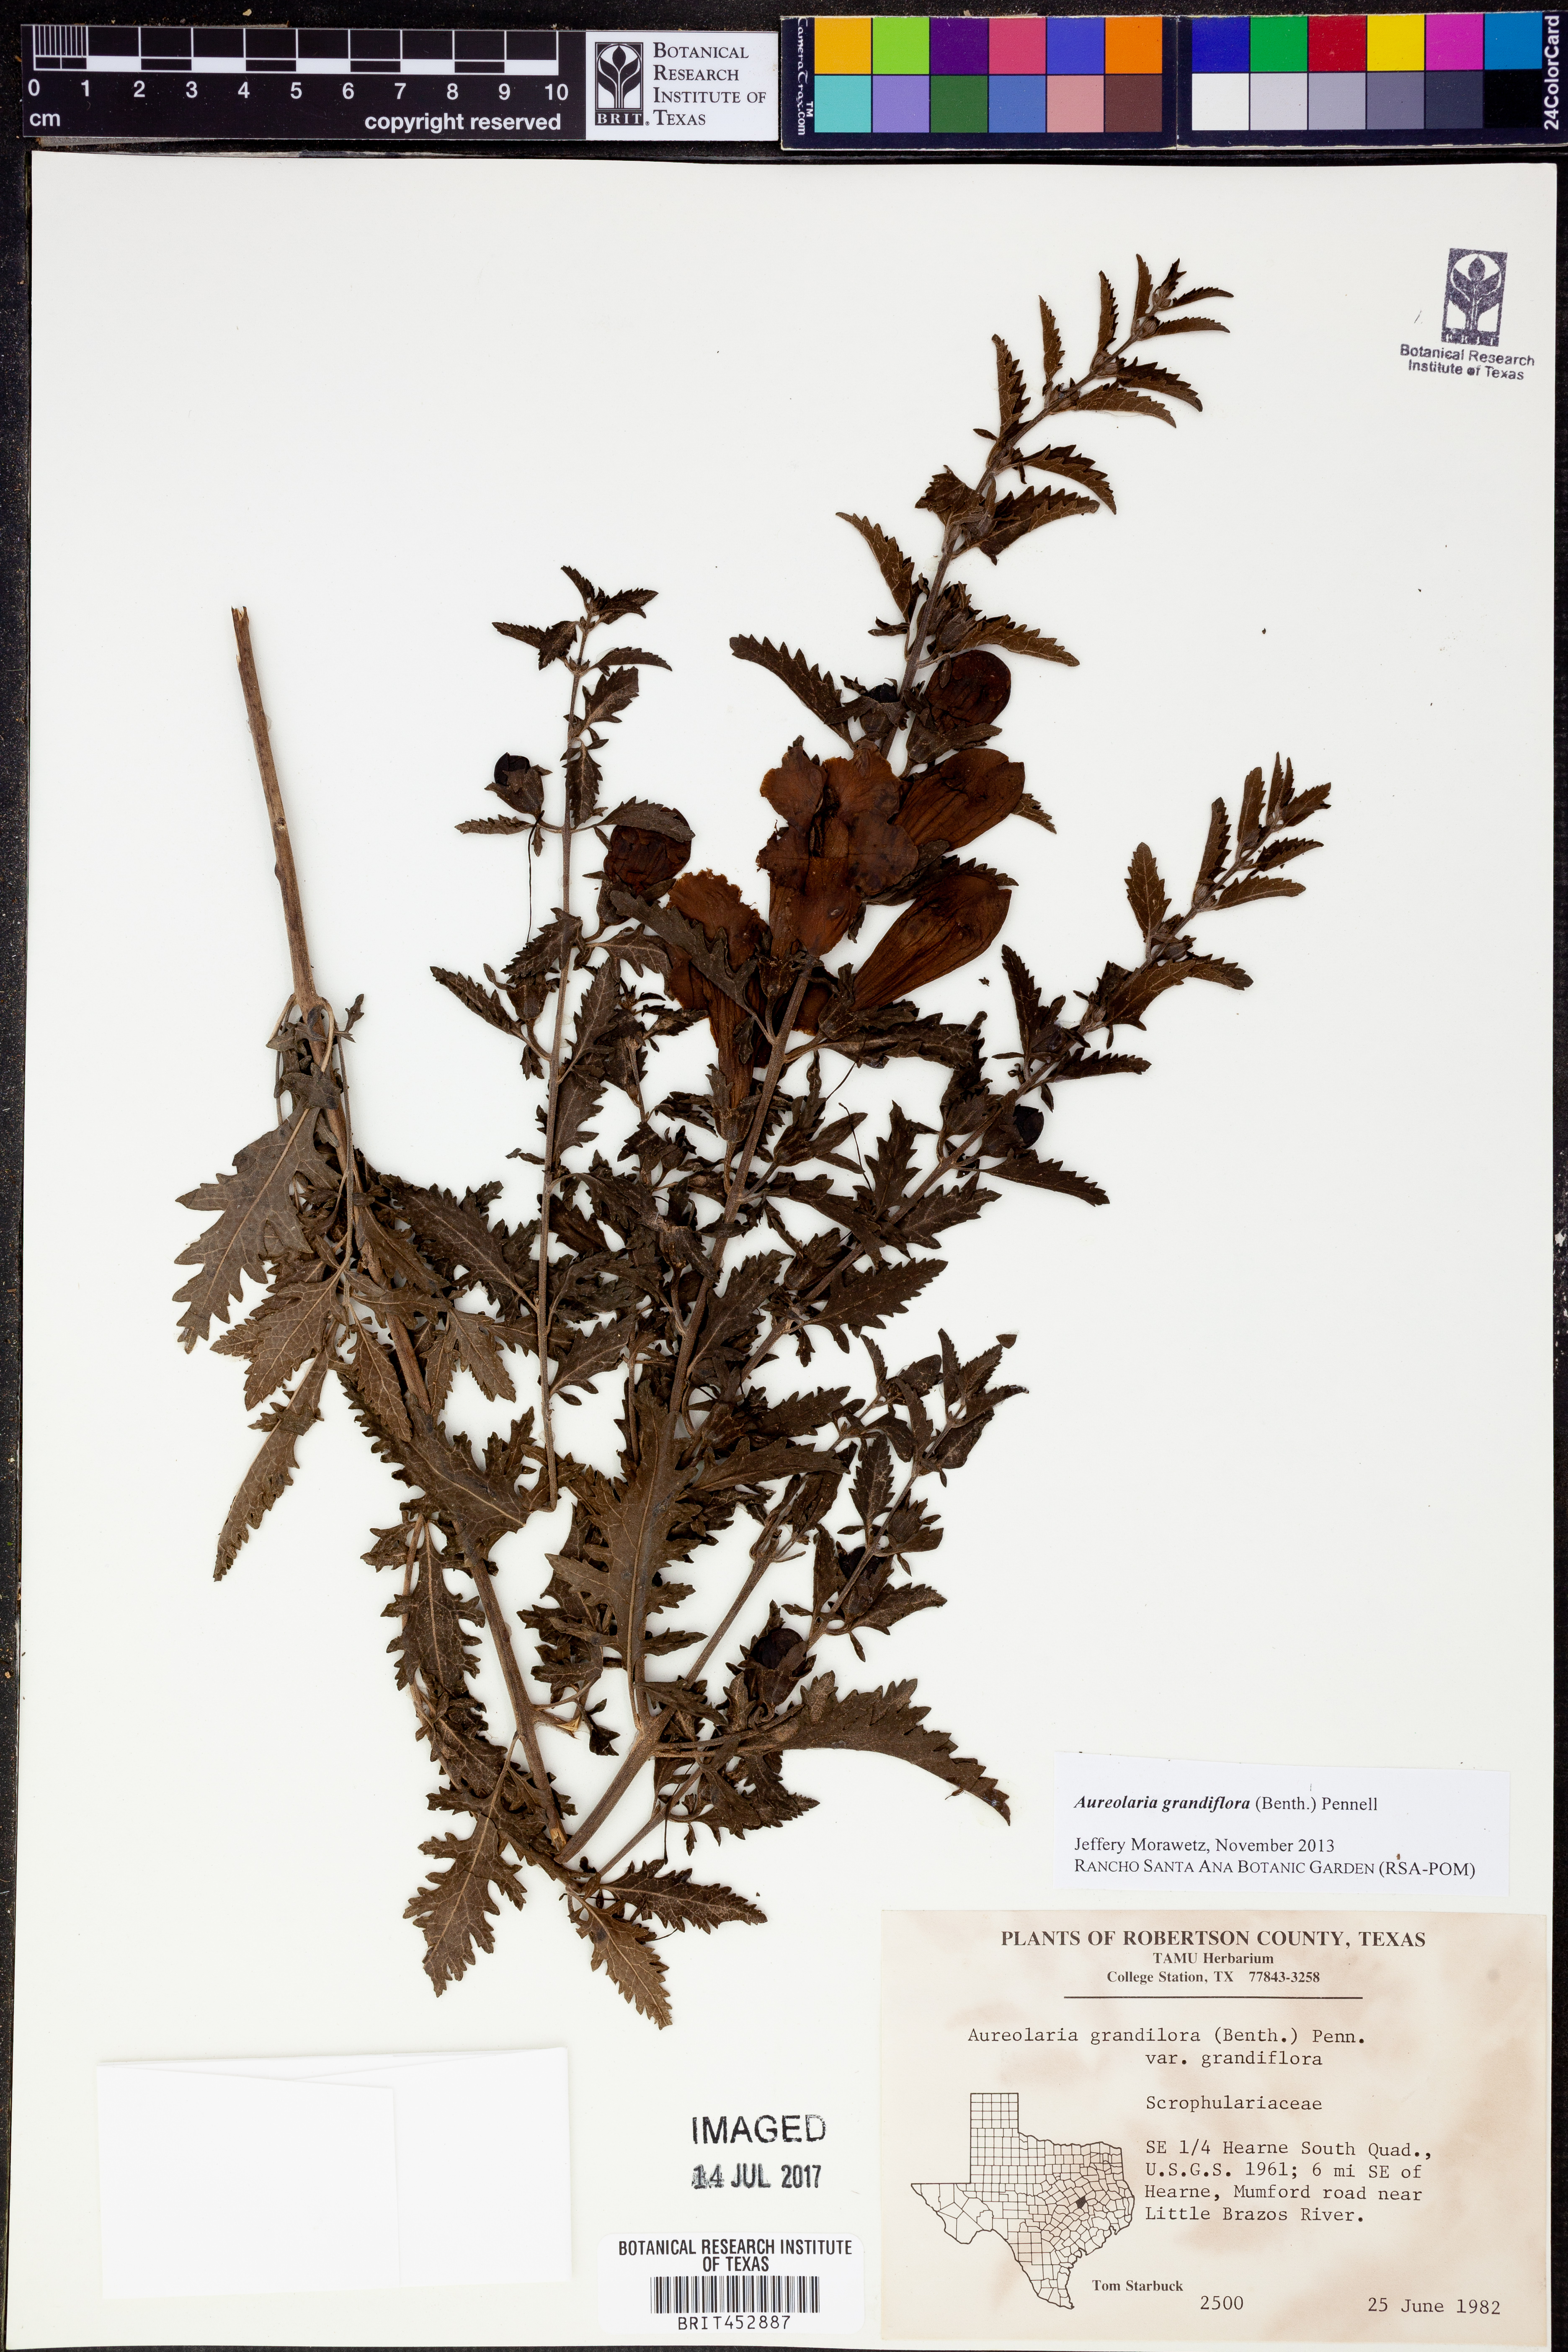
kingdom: Plantae
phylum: Tracheophyta
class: Magnoliopsida
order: Lamiales
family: Orobanchaceae
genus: Aureolaria
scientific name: Aureolaria grandiflora
